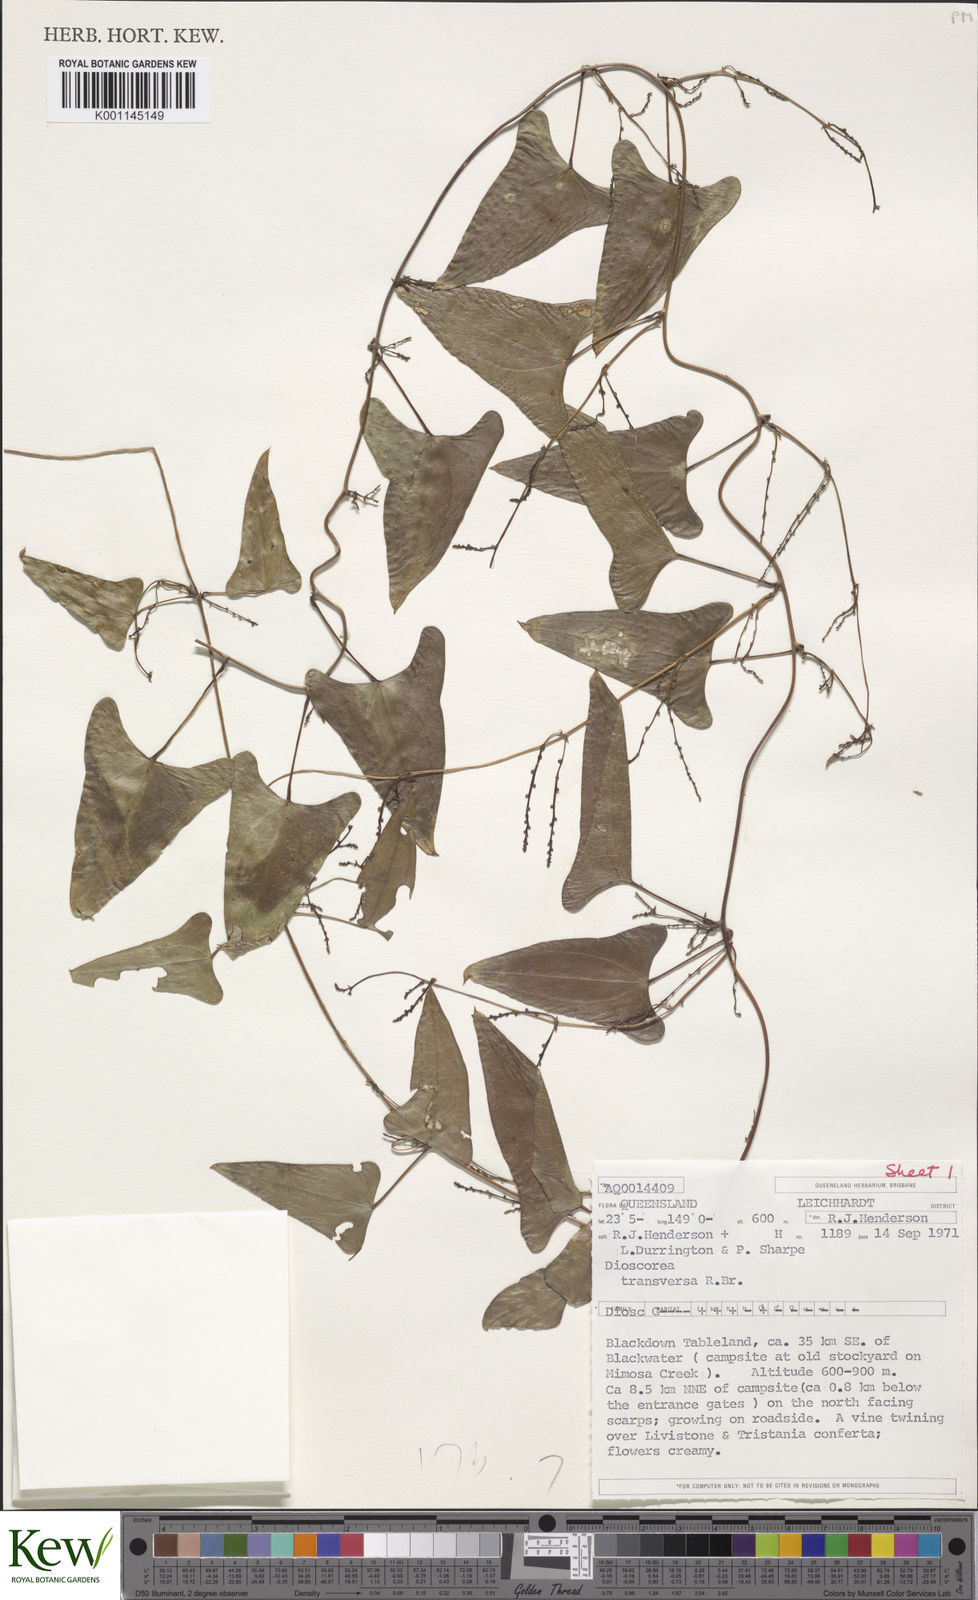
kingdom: Plantae
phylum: Tracheophyta
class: Liliopsida
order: Dioscoreales
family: Dioscoreaceae
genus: Dioscorea
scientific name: Dioscorea transversa
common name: Long yam
